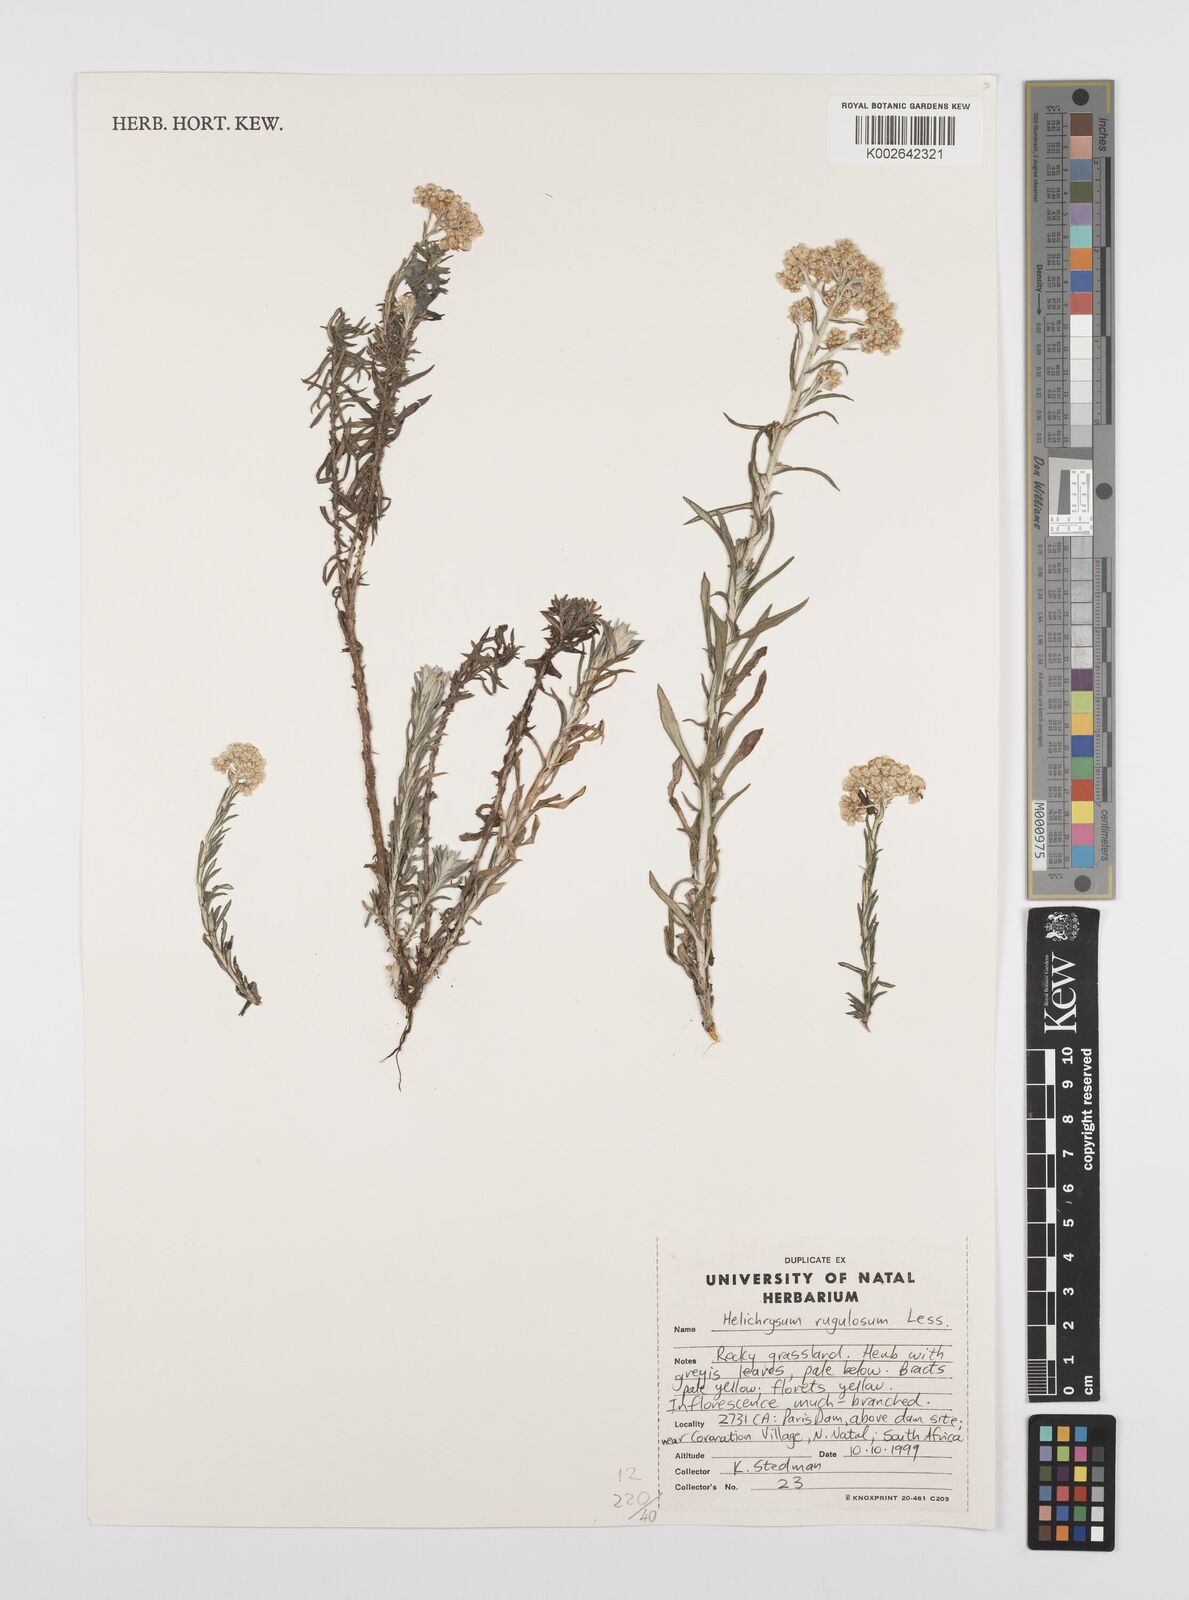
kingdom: Plantae
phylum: Tracheophyta
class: Magnoliopsida
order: Asterales
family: Asteraceae
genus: Helichrysum
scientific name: Helichrysum rugulosum
